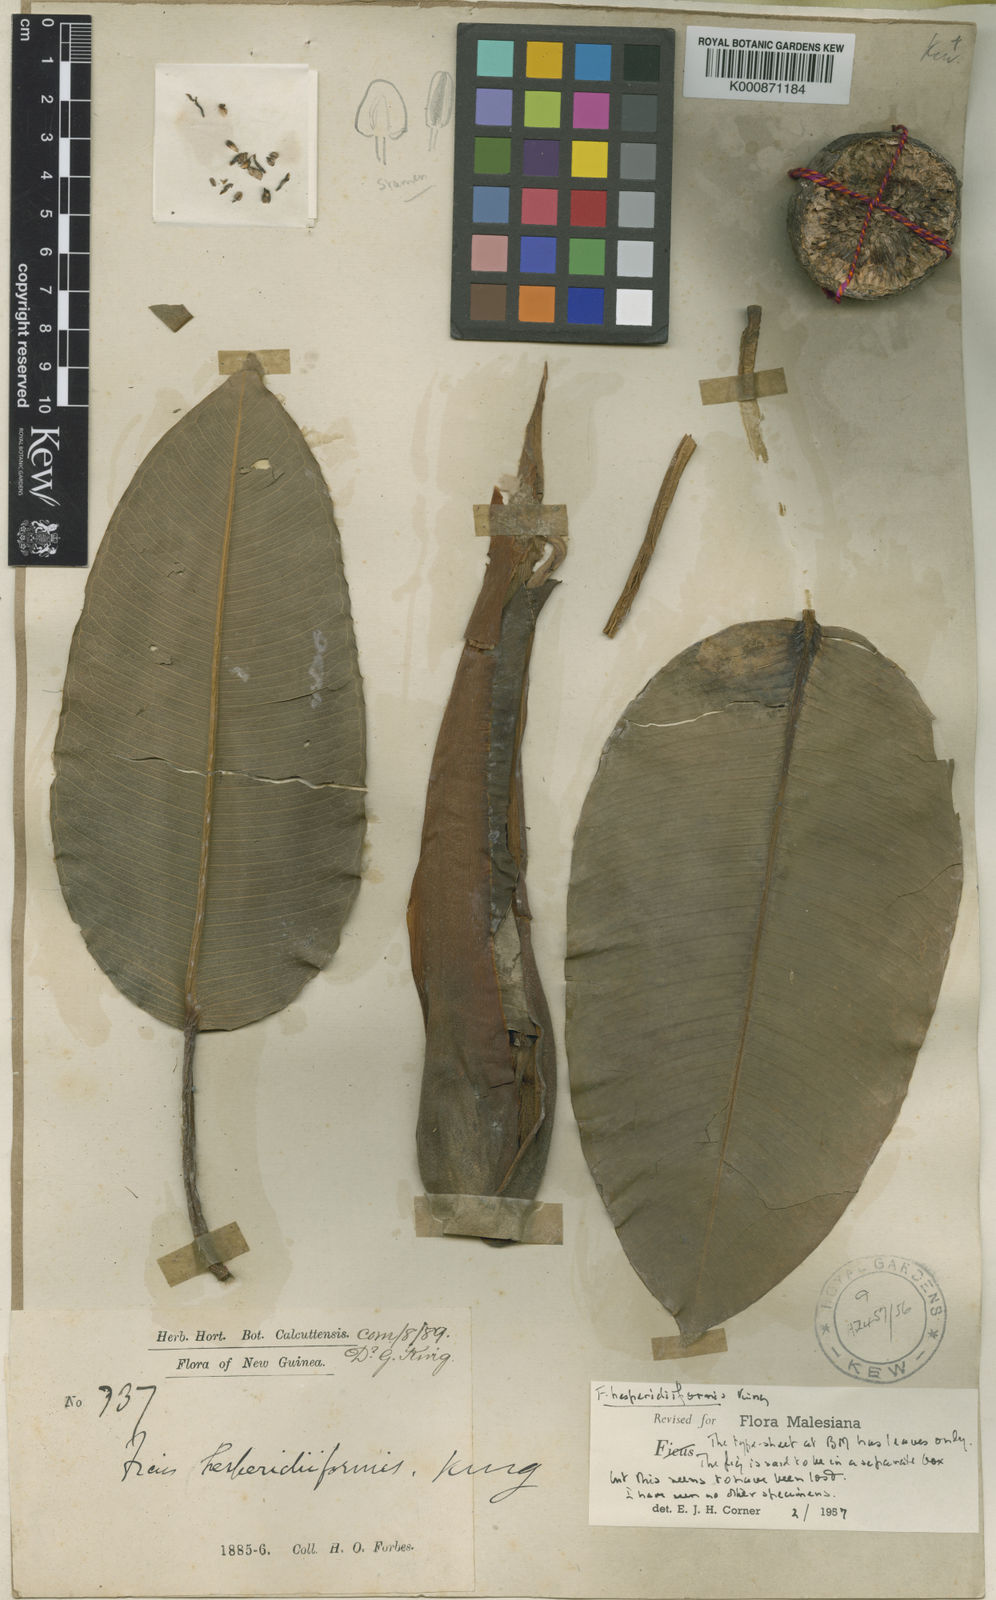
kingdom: Plantae
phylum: Tracheophyta
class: Magnoliopsida
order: Rosales
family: Moraceae
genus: Ficus
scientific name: Ficus hesperidiiformis
